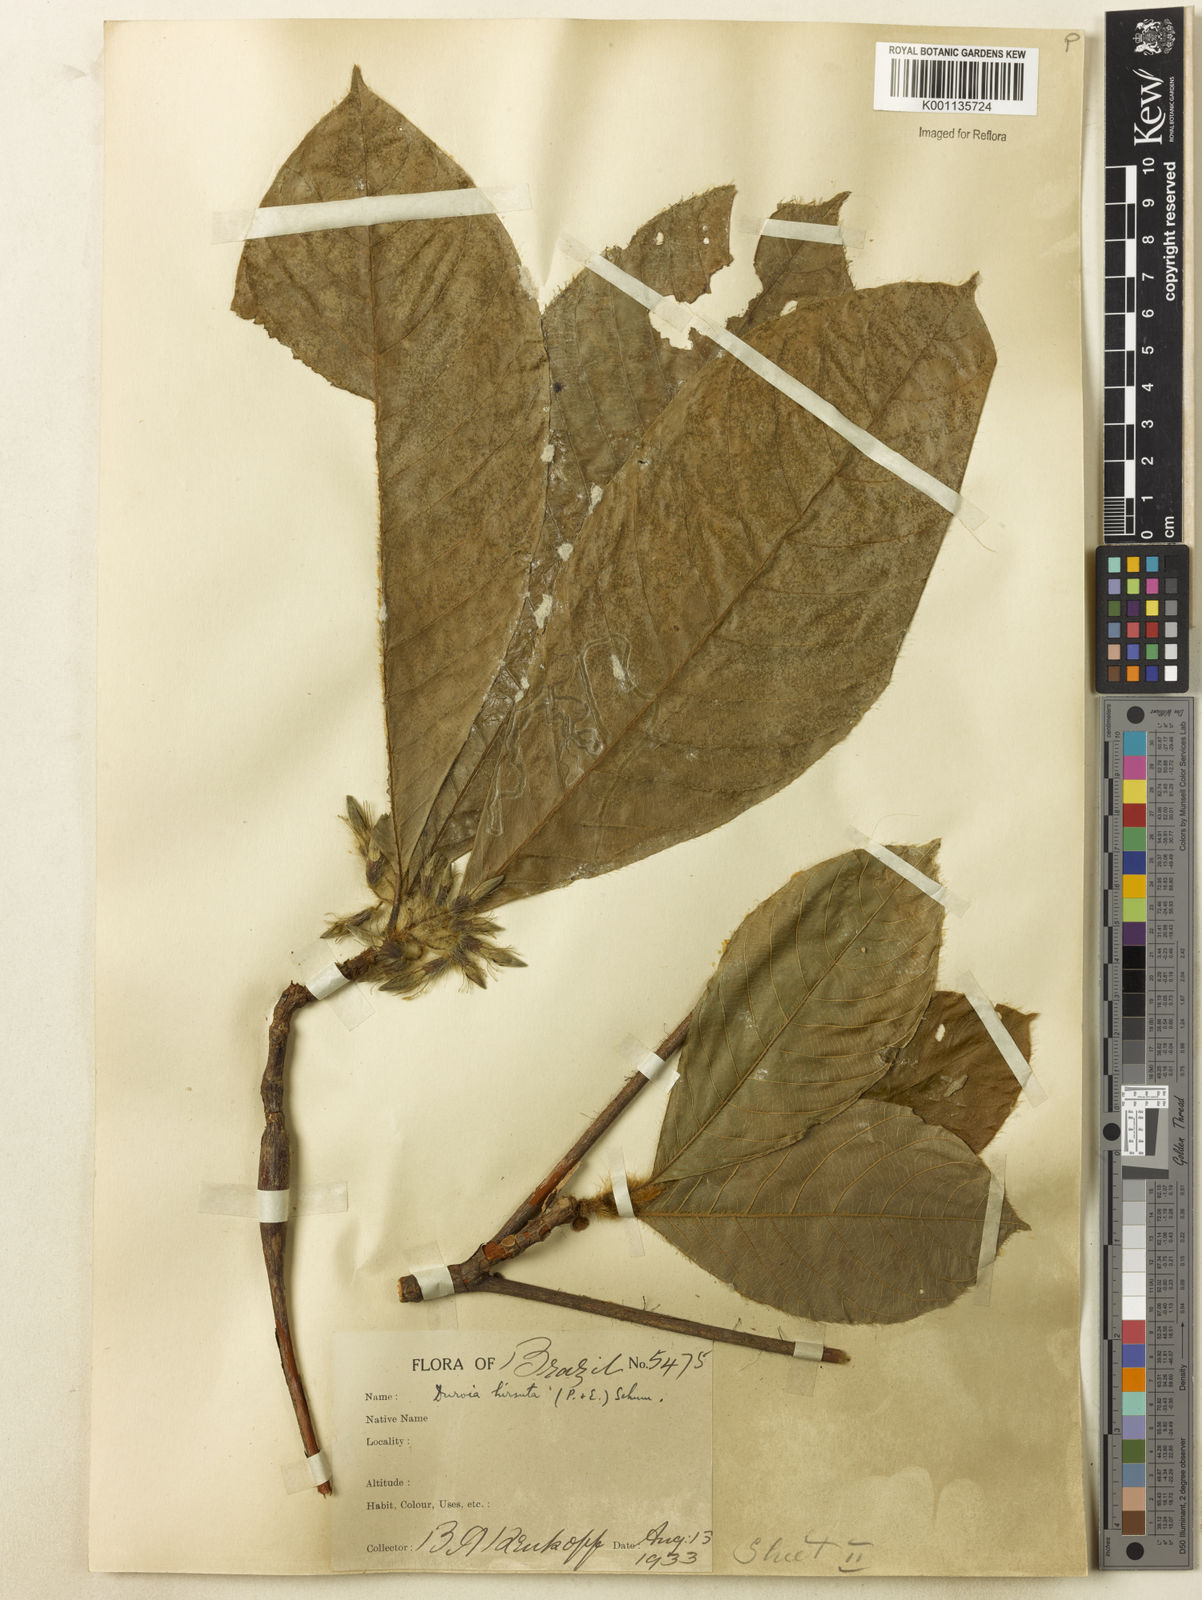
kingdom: Plantae
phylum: Tracheophyta
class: Magnoliopsida
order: Gentianales
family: Rubiaceae
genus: Duroia
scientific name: Duroia hirsuta
